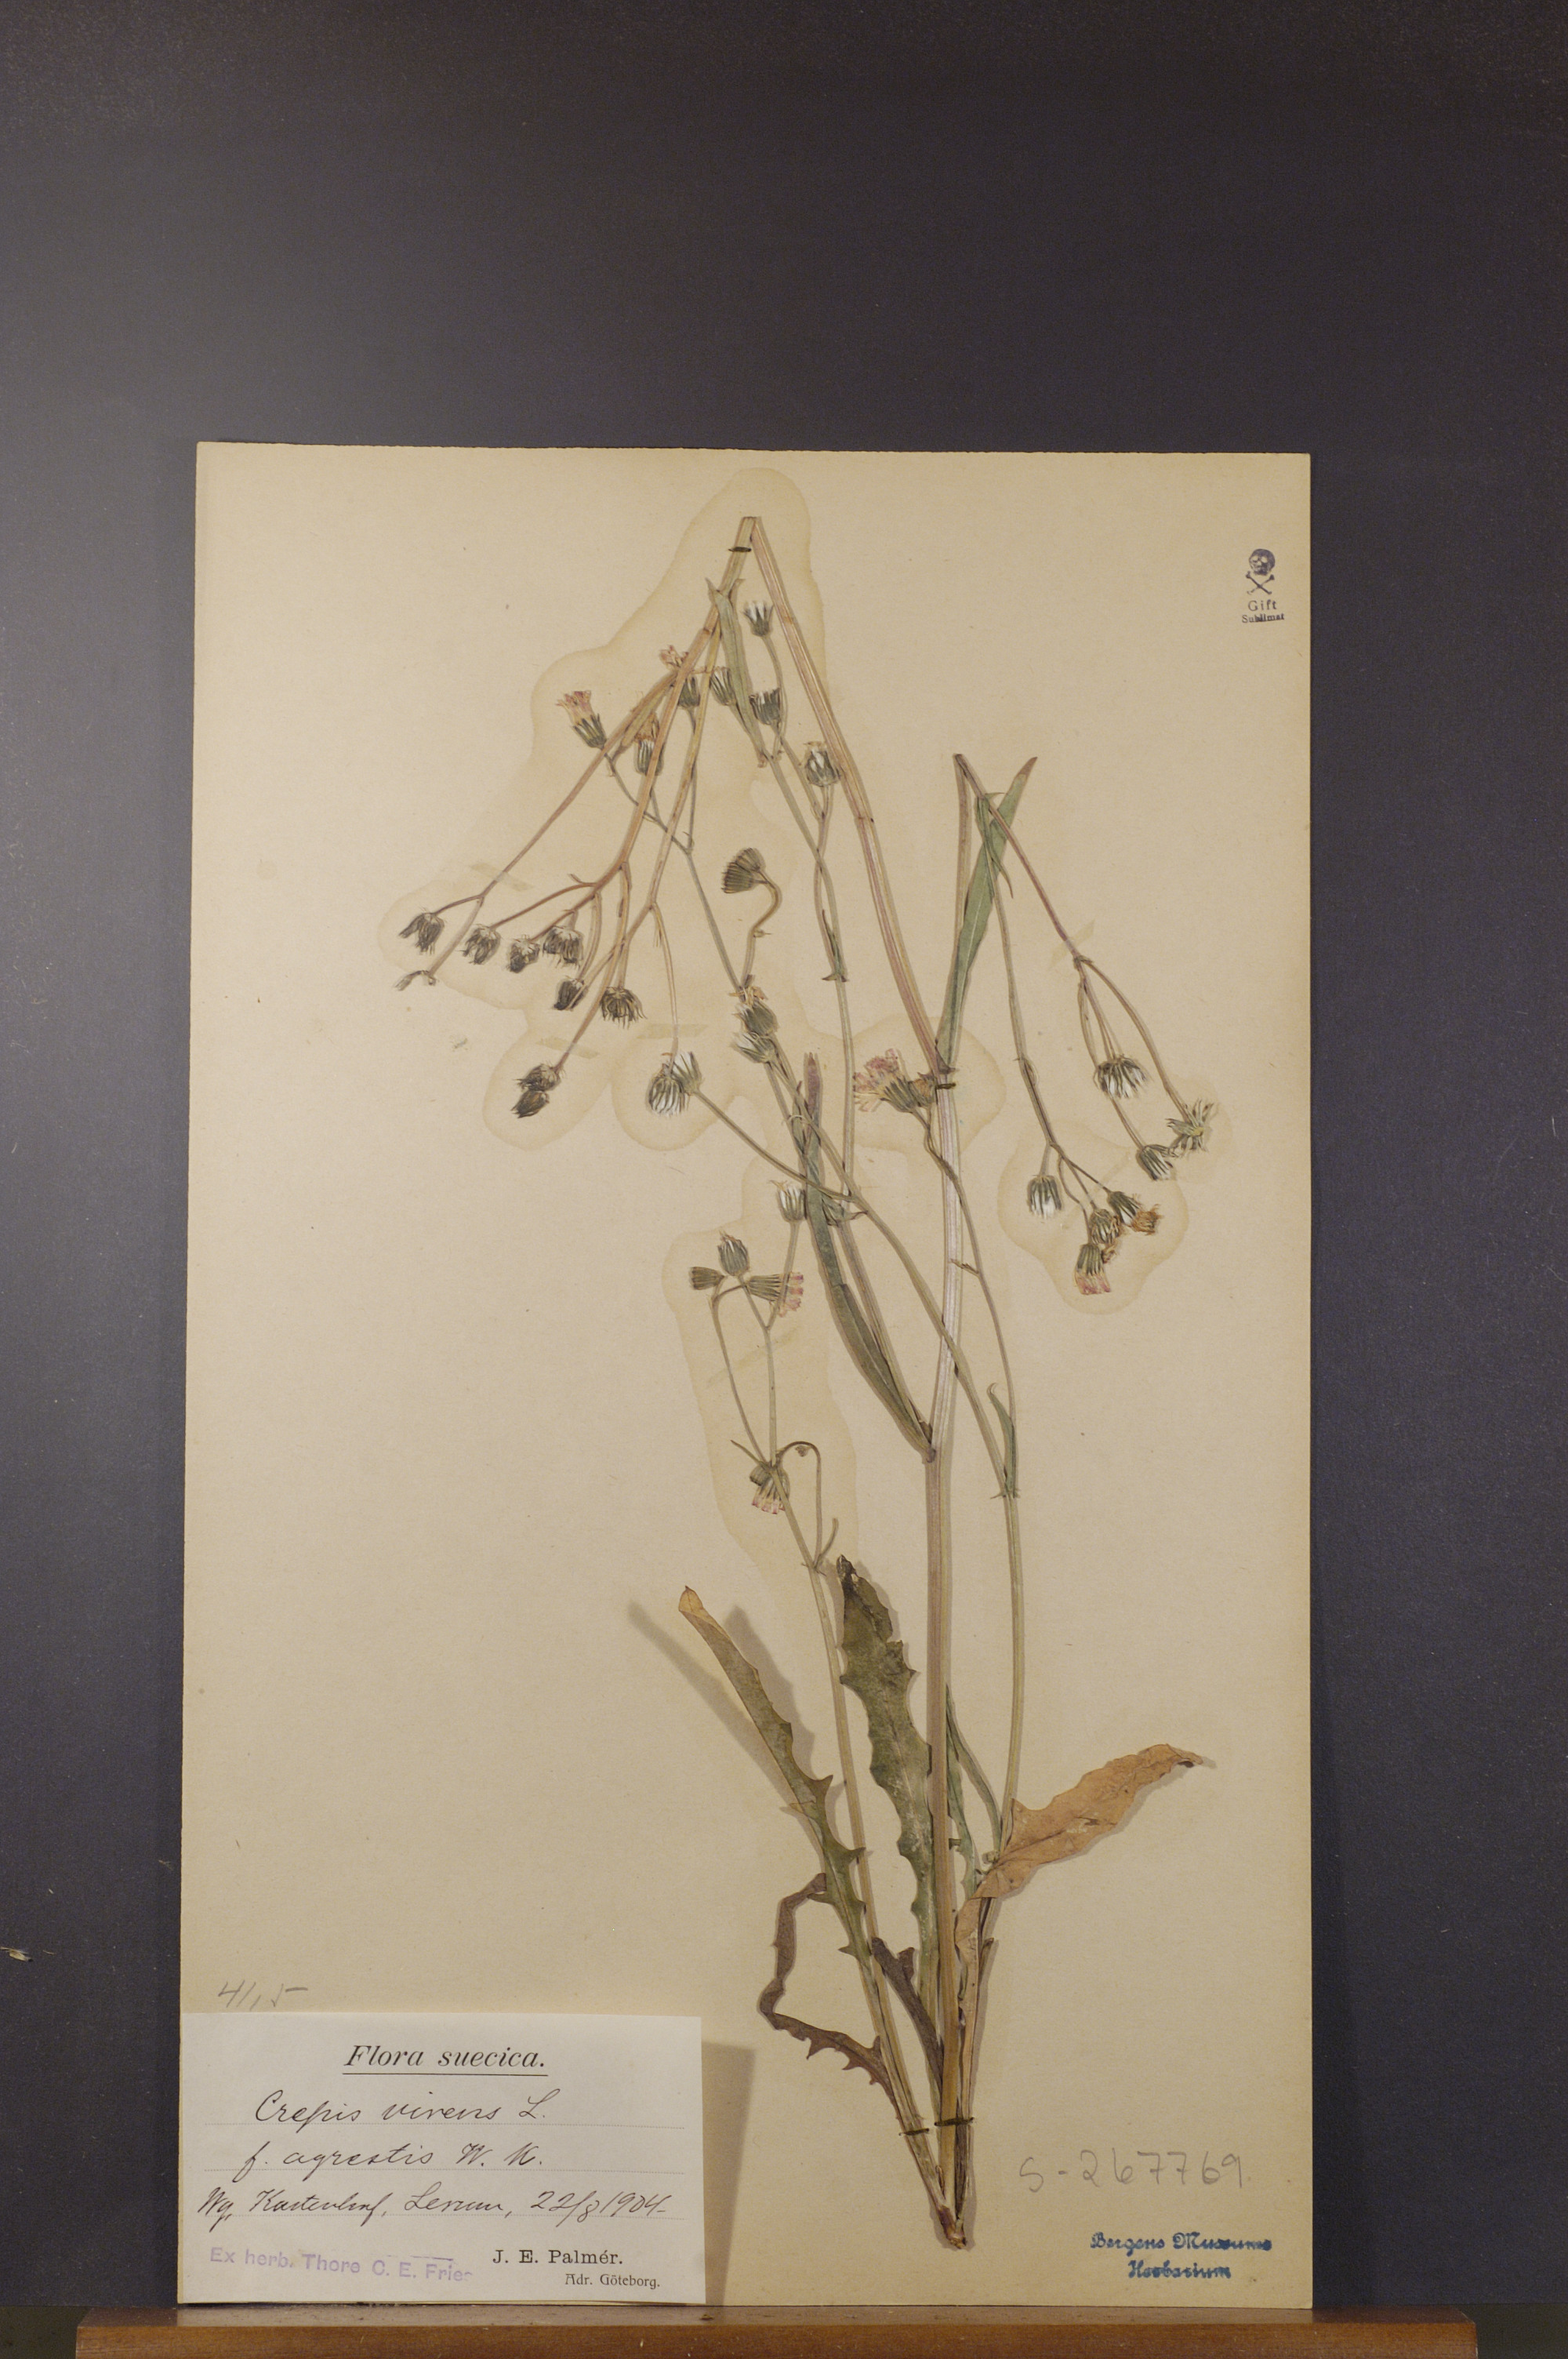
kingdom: Plantae
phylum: Tracheophyta
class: Magnoliopsida
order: Asterales
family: Asteraceae
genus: Crepis
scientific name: Crepis capillaris
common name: Smooth hawksbeard
